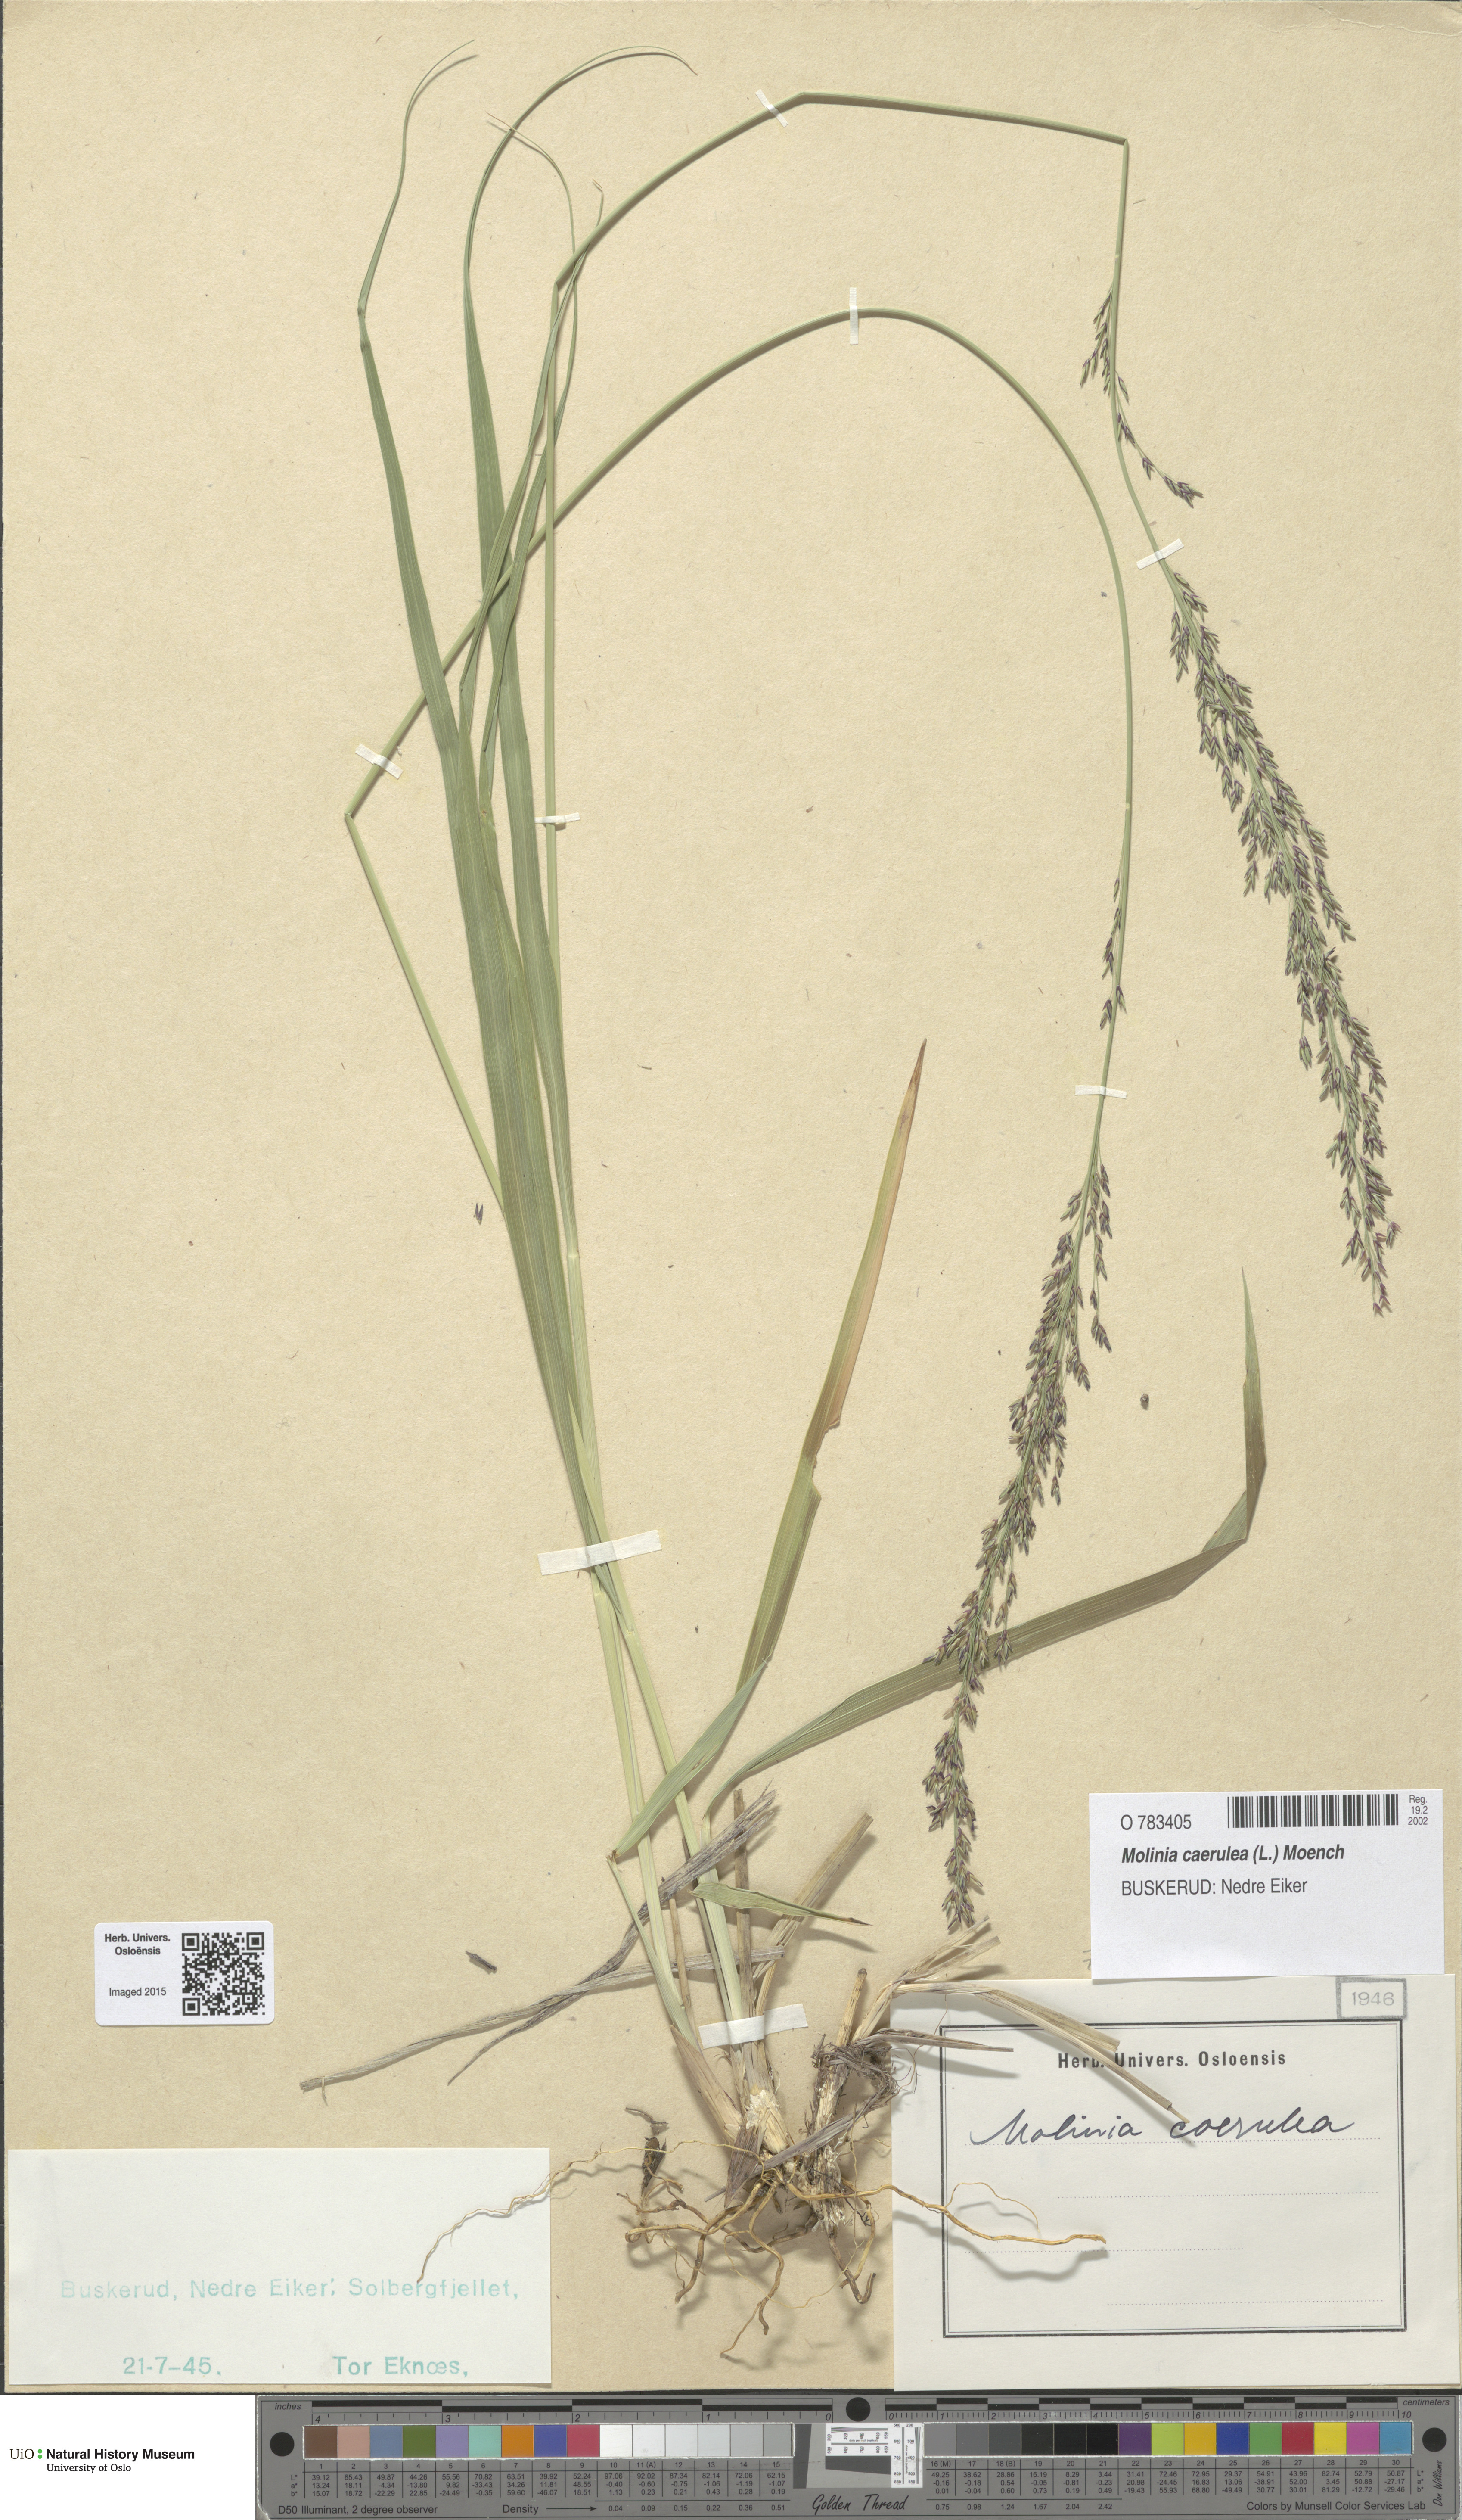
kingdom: Plantae
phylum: Tracheophyta
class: Liliopsida
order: Poales
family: Poaceae
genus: Molinia
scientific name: Molinia caerulea
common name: Purple moor-grass
